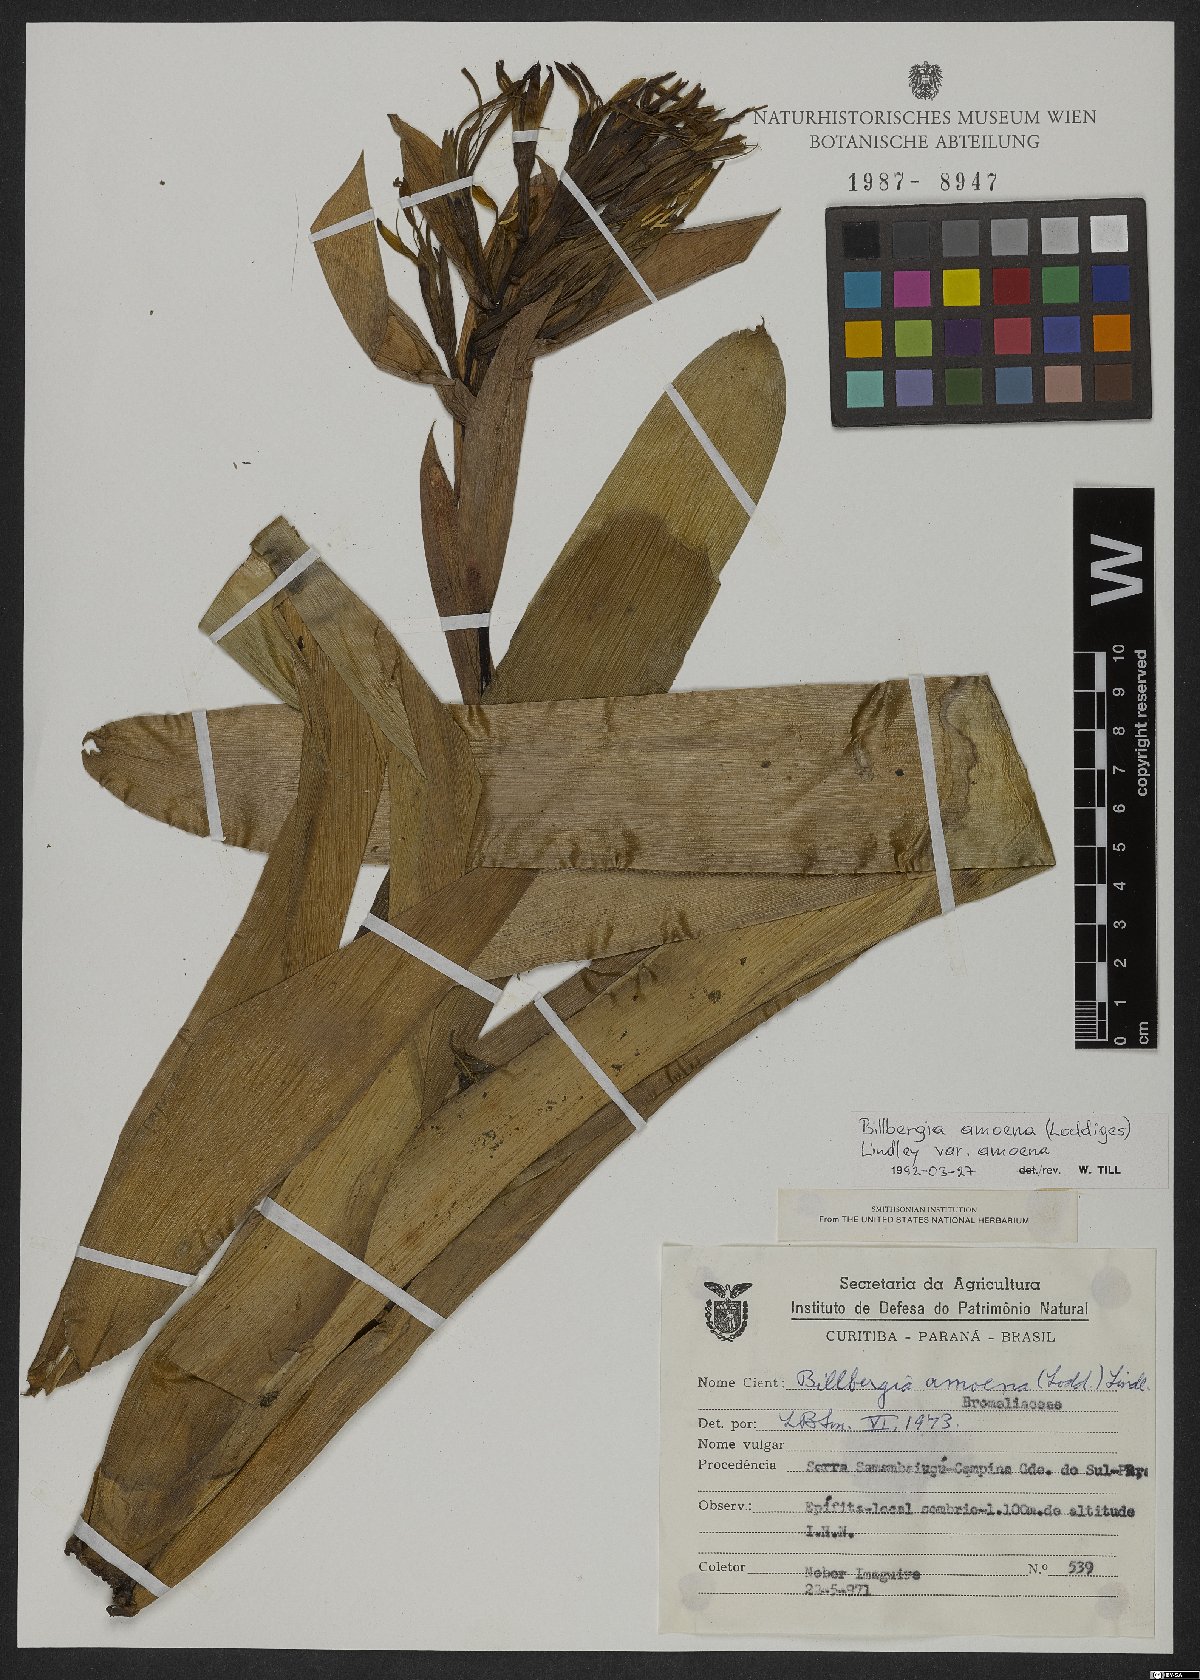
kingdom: Plantae
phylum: Tracheophyta
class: Liliopsida
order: Poales
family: Bromeliaceae
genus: Billbergia
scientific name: Billbergia amoena
